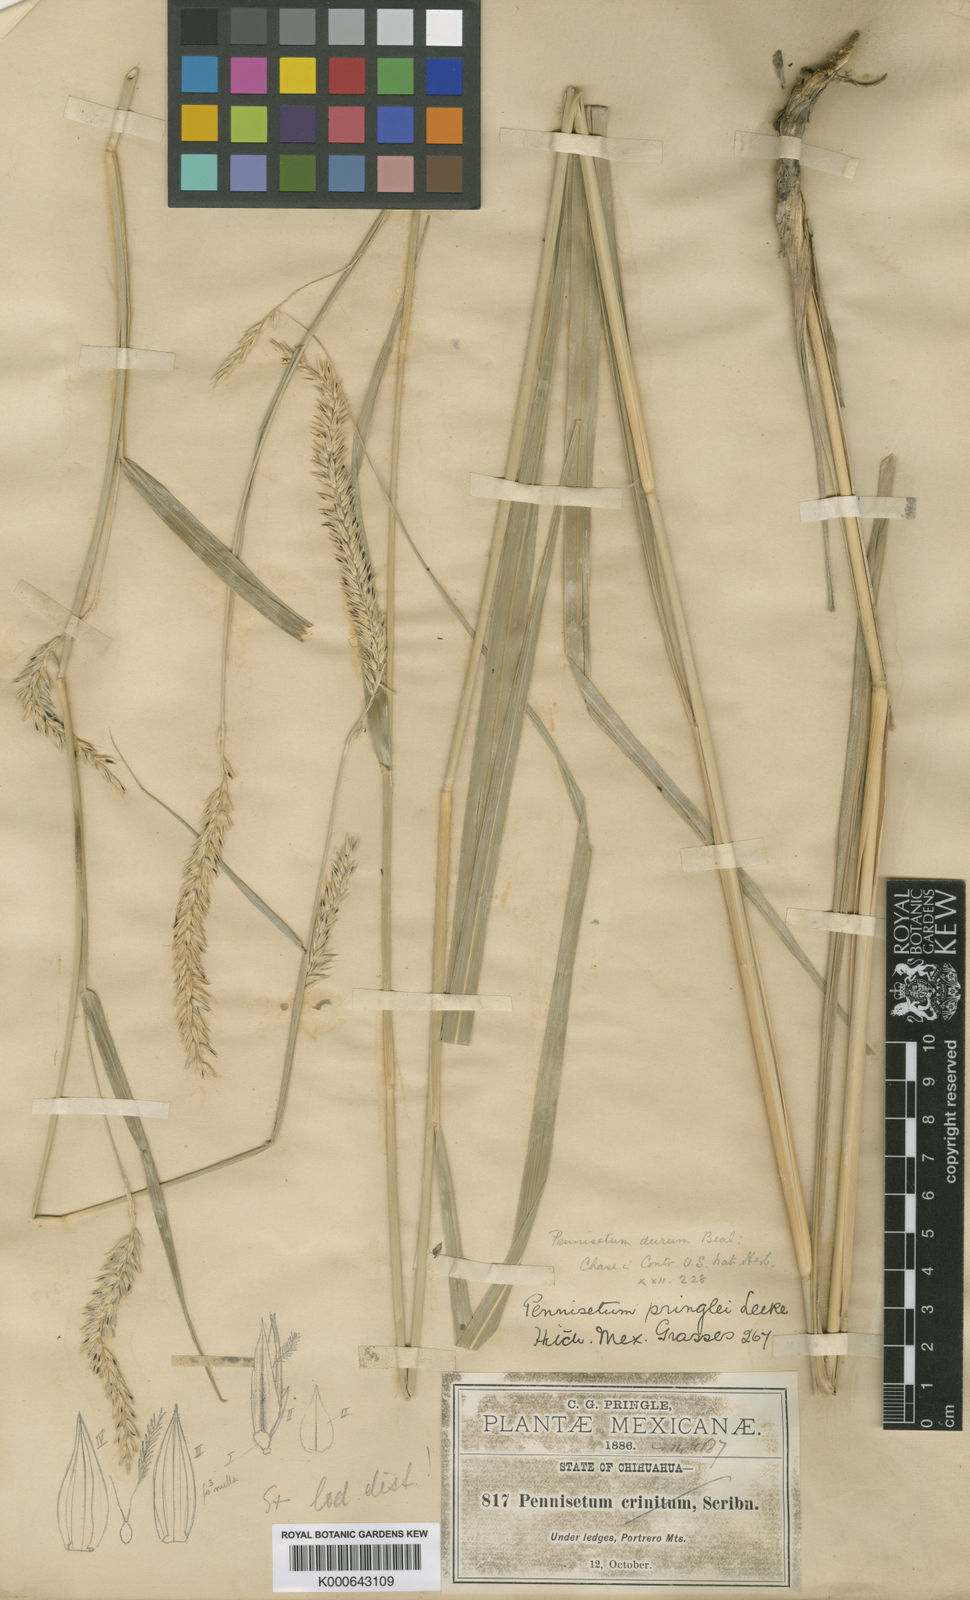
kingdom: Plantae
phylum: Tracheophyta
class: Liliopsida
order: Poales
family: Poaceae
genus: Cenchrus
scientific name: Cenchrus durus
